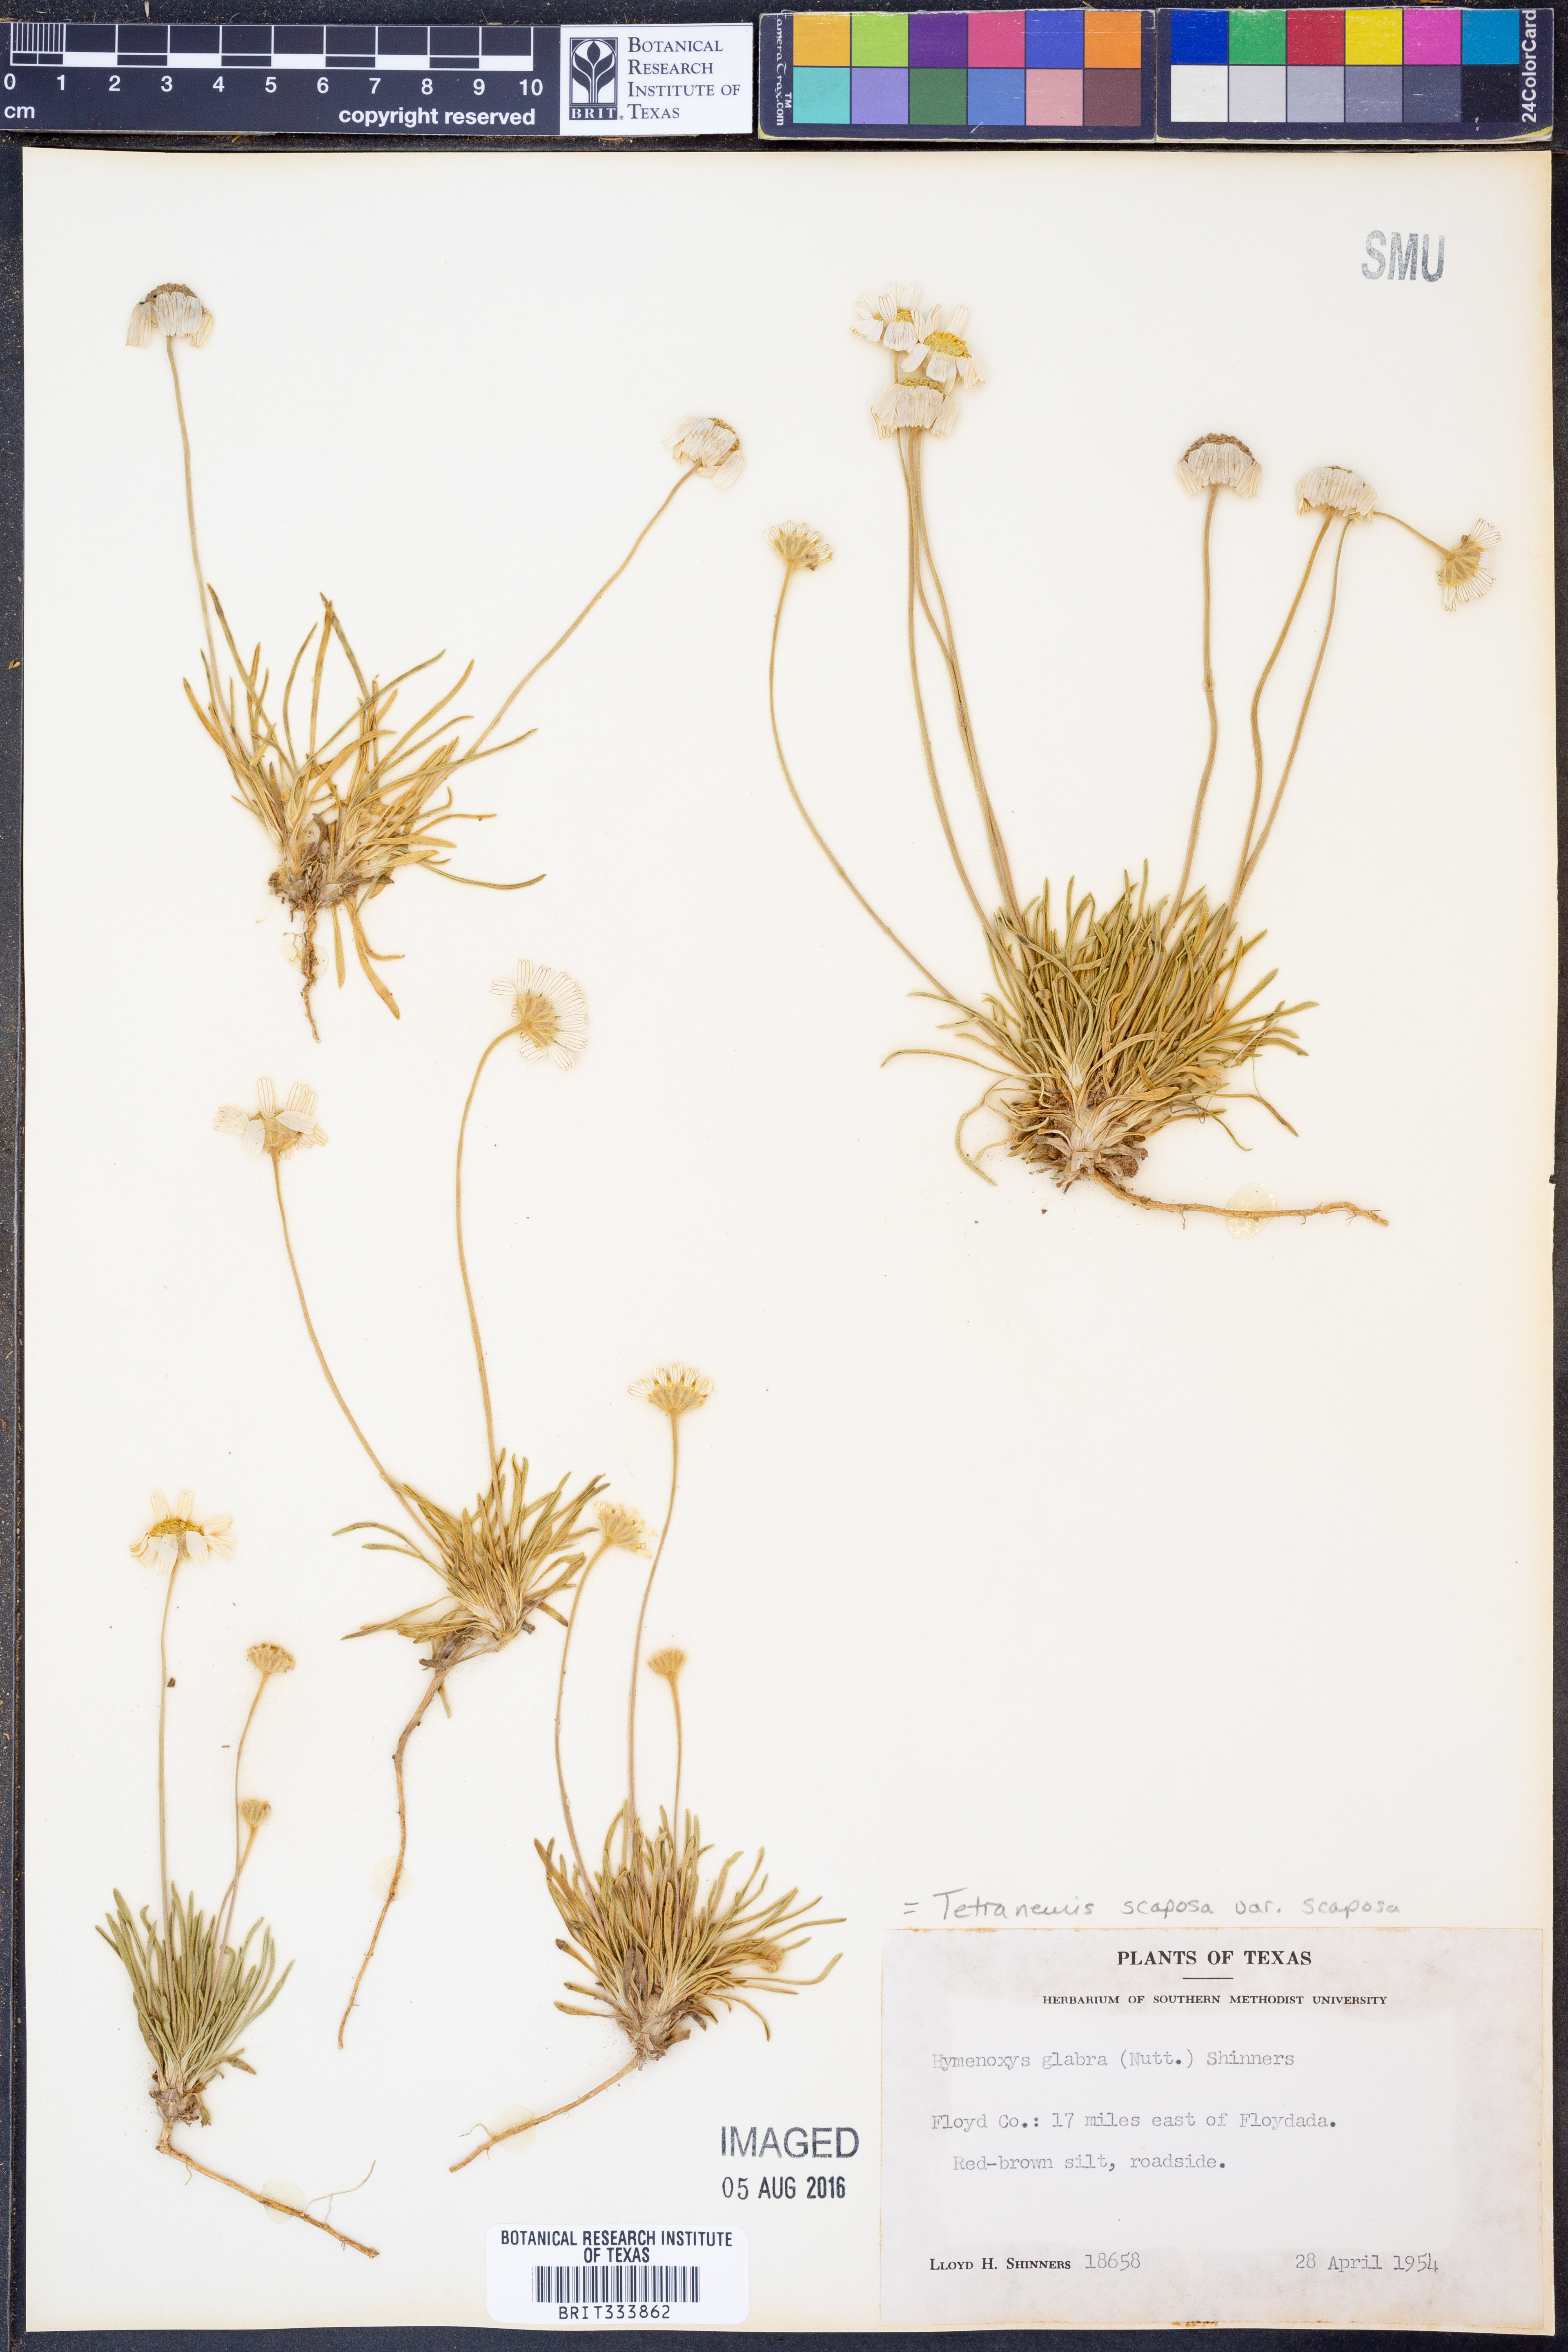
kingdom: Plantae
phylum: Tracheophyta
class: Magnoliopsida
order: Asterales
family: Asteraceae
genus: Tetraneuris
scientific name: Tetraneuris scaposa
